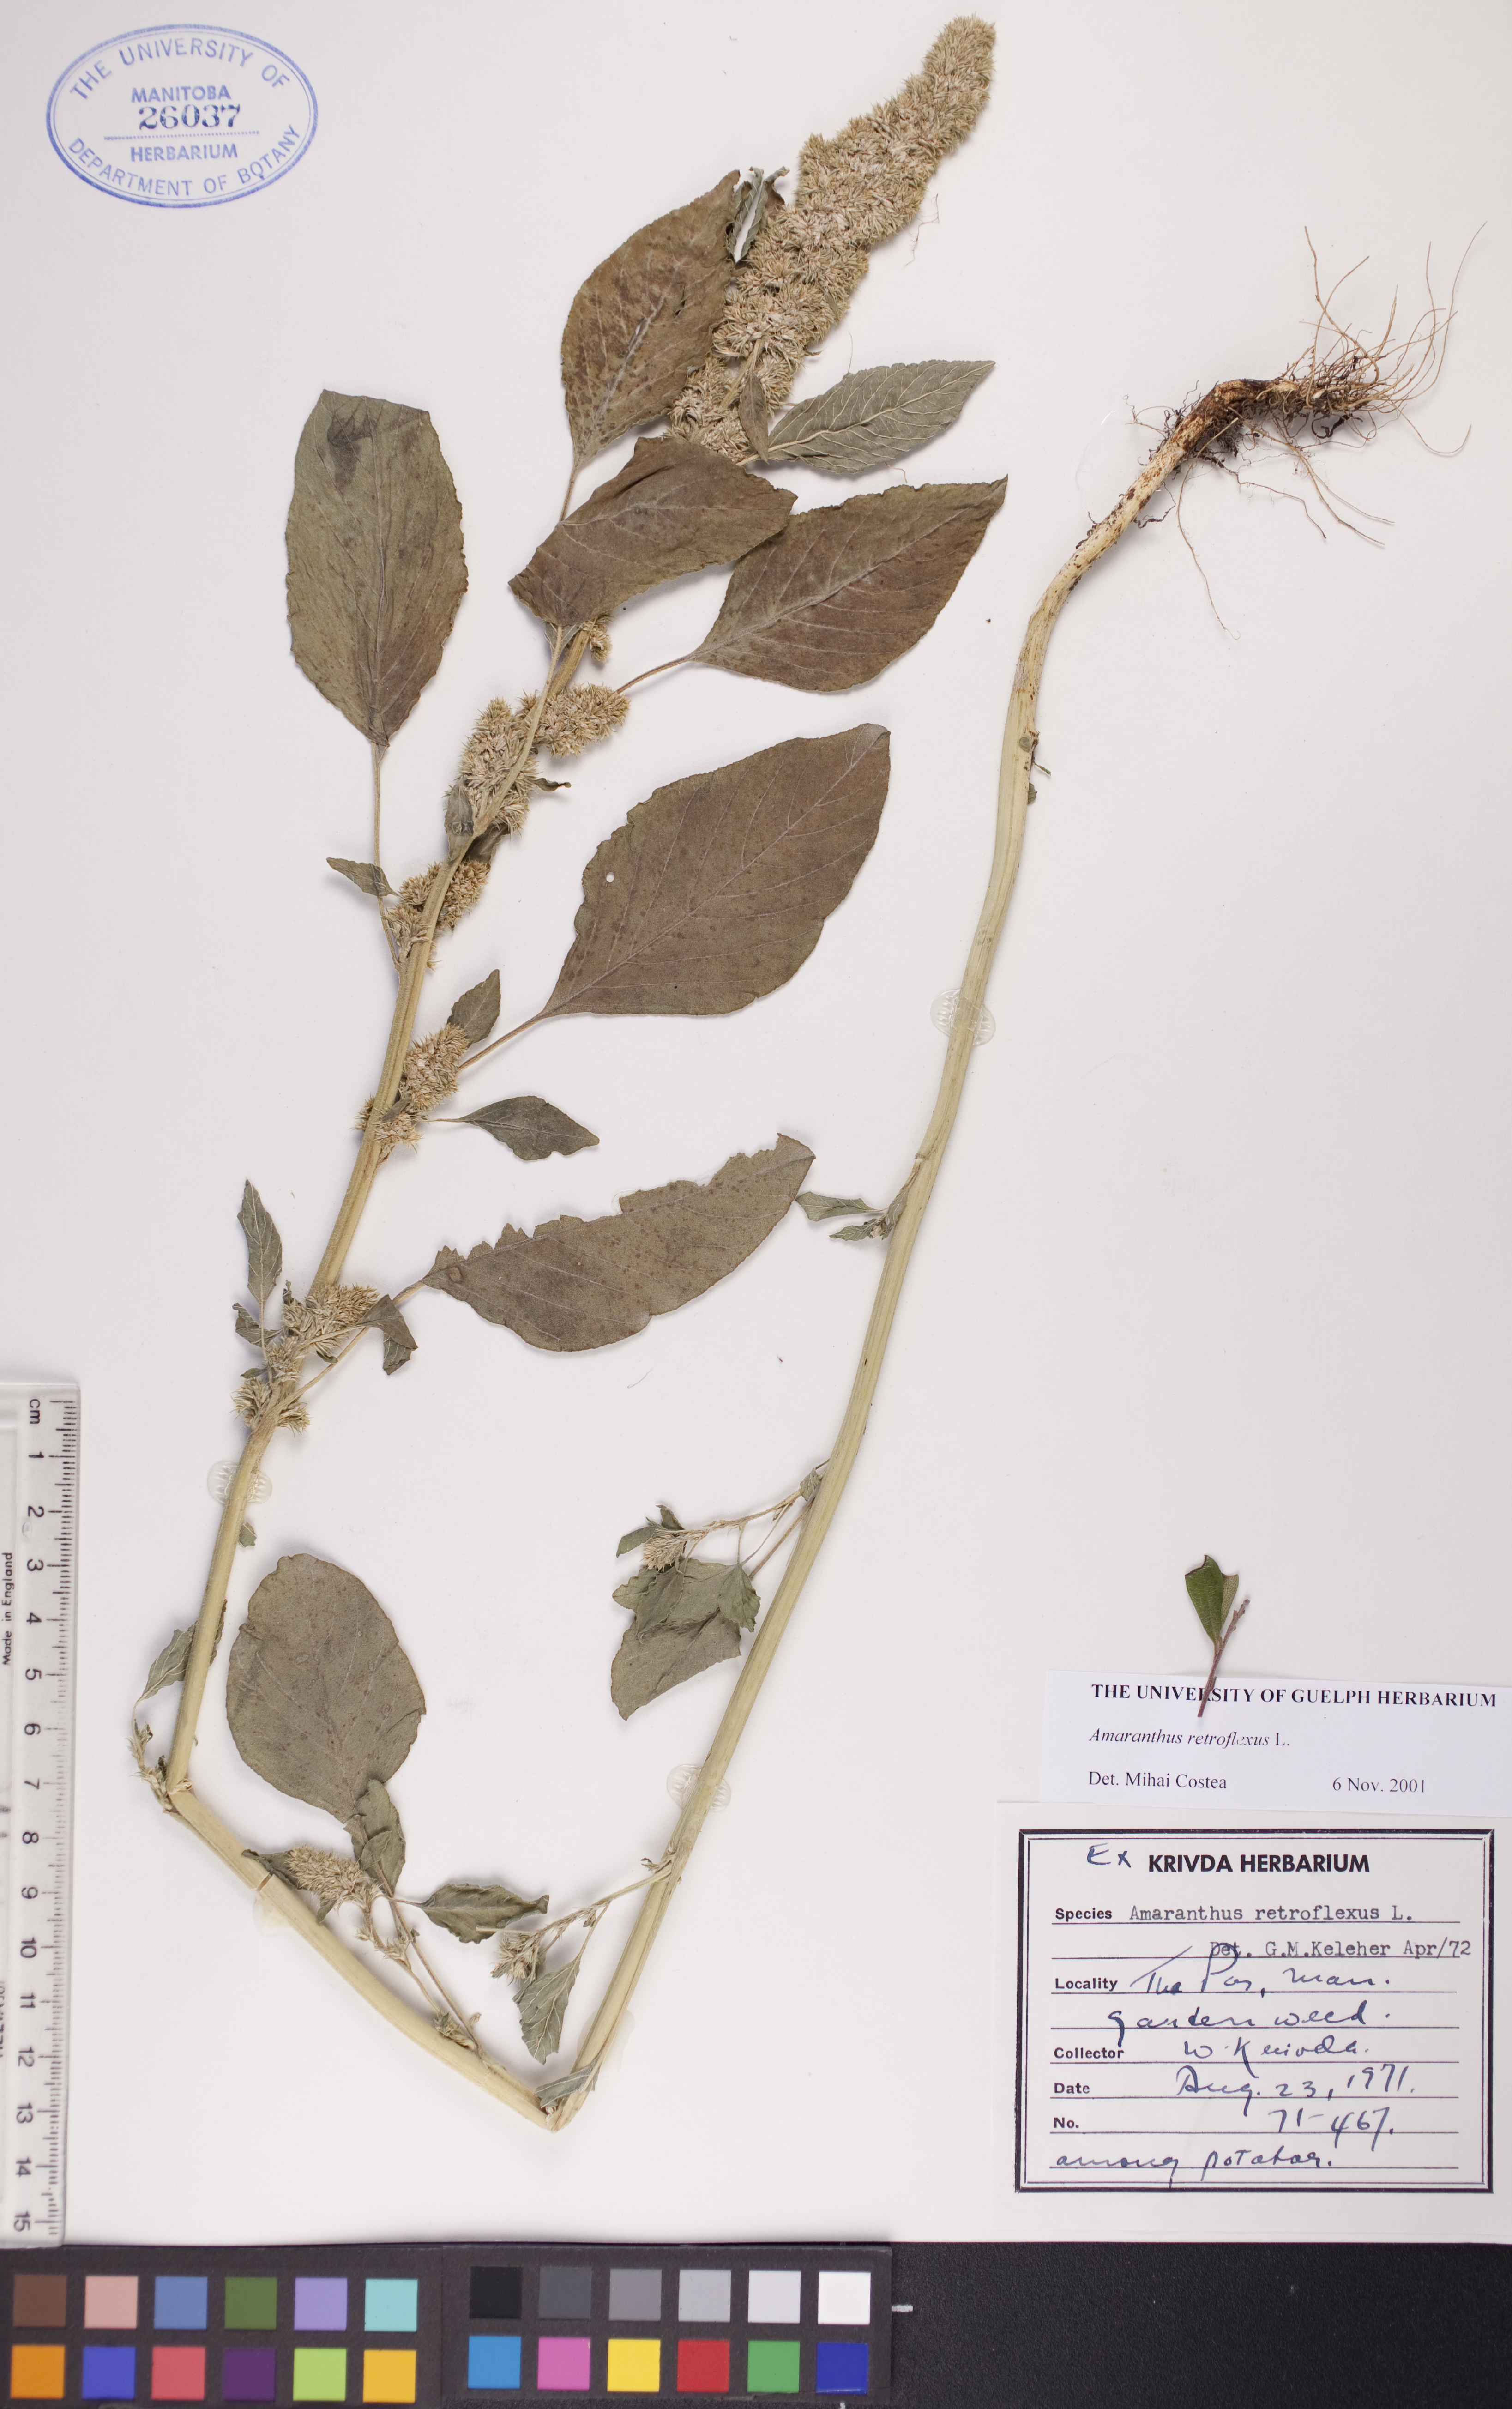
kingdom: Plantae
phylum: Tracheophyta
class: Magnoliopsida
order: Caryophyllales
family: Amaranthaceae
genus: Amaranthus
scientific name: Amaranthus retroflexus
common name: Redroot amaranth
